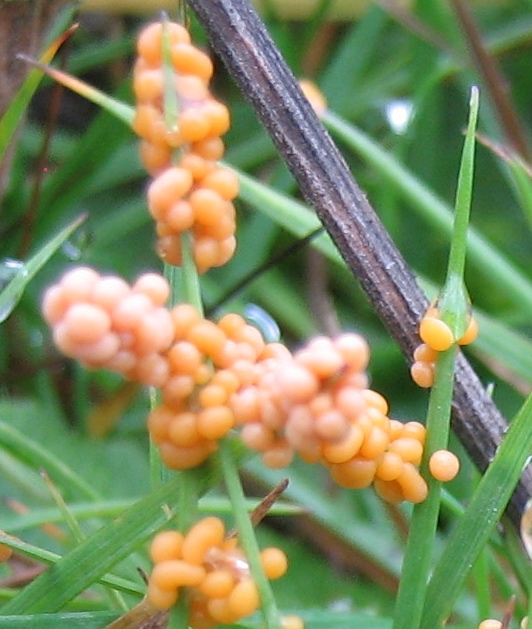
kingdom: Protozoa
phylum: Mycetozoa
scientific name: Mycetozoa
